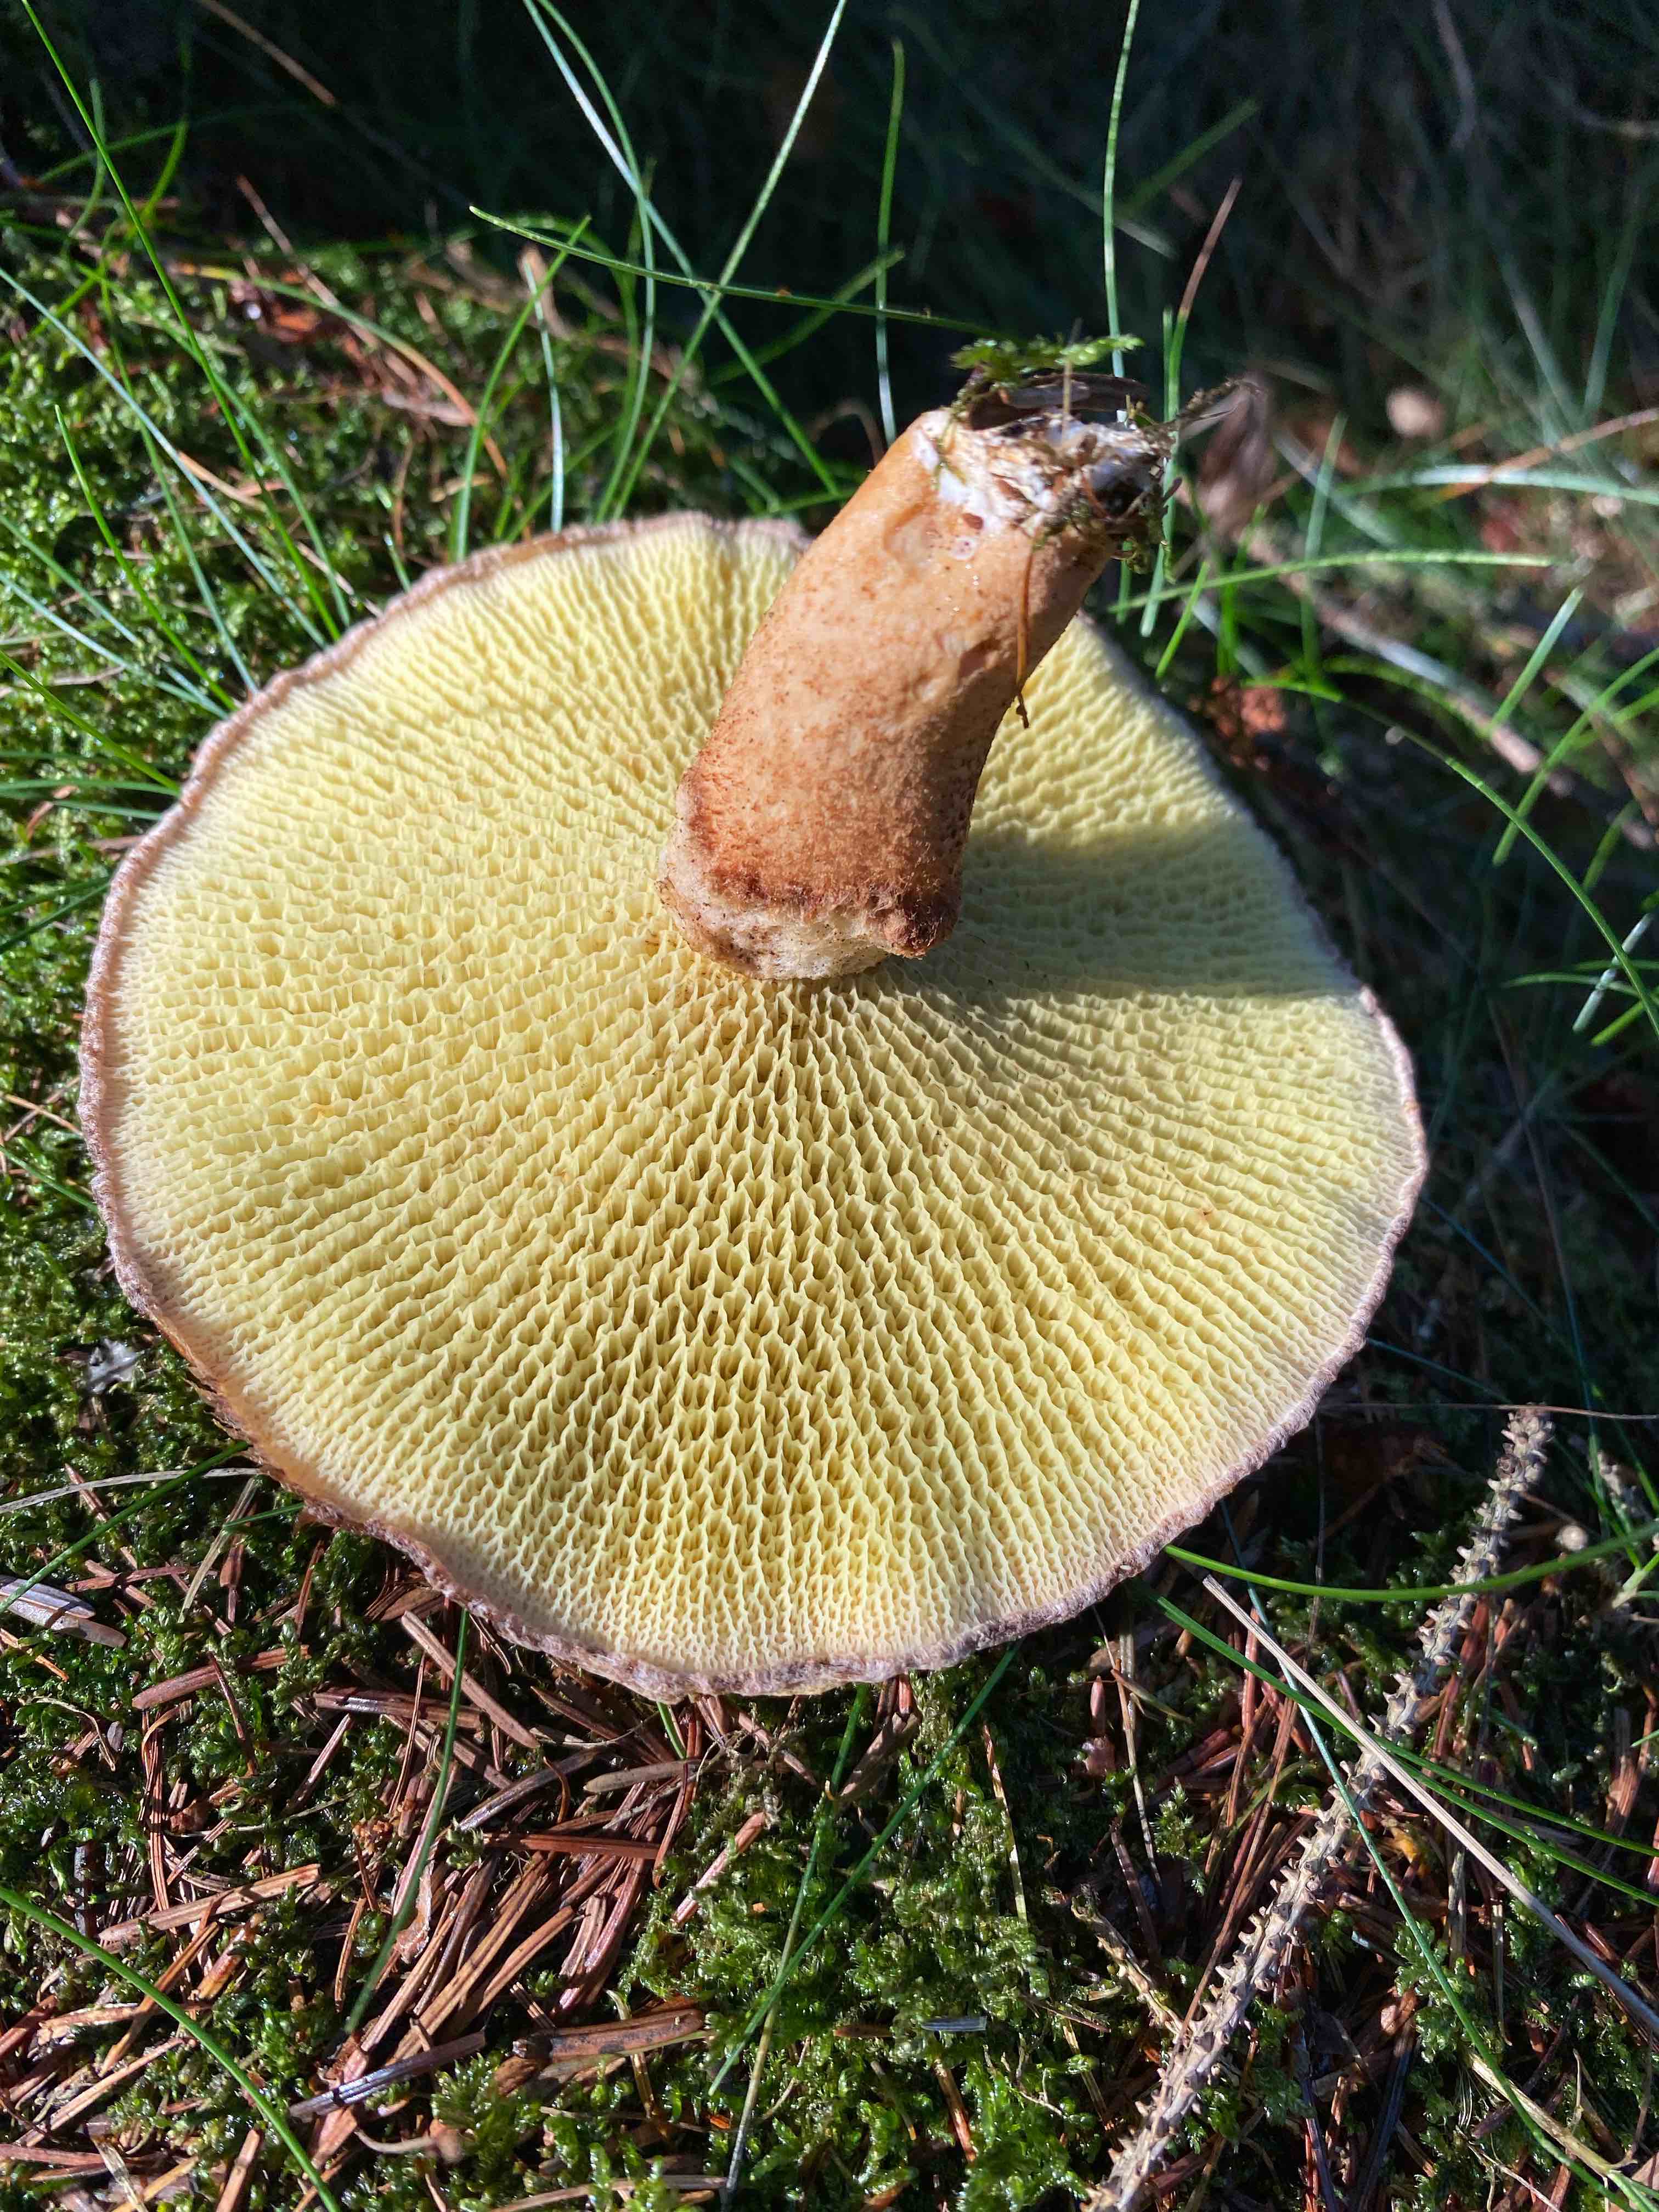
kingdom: Fungi
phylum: Basidiomycota
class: Agaricomycetes
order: Boletales
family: Suillaceae
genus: Suillus
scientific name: Suillus cavipes
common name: hulstokket slimrørhat
